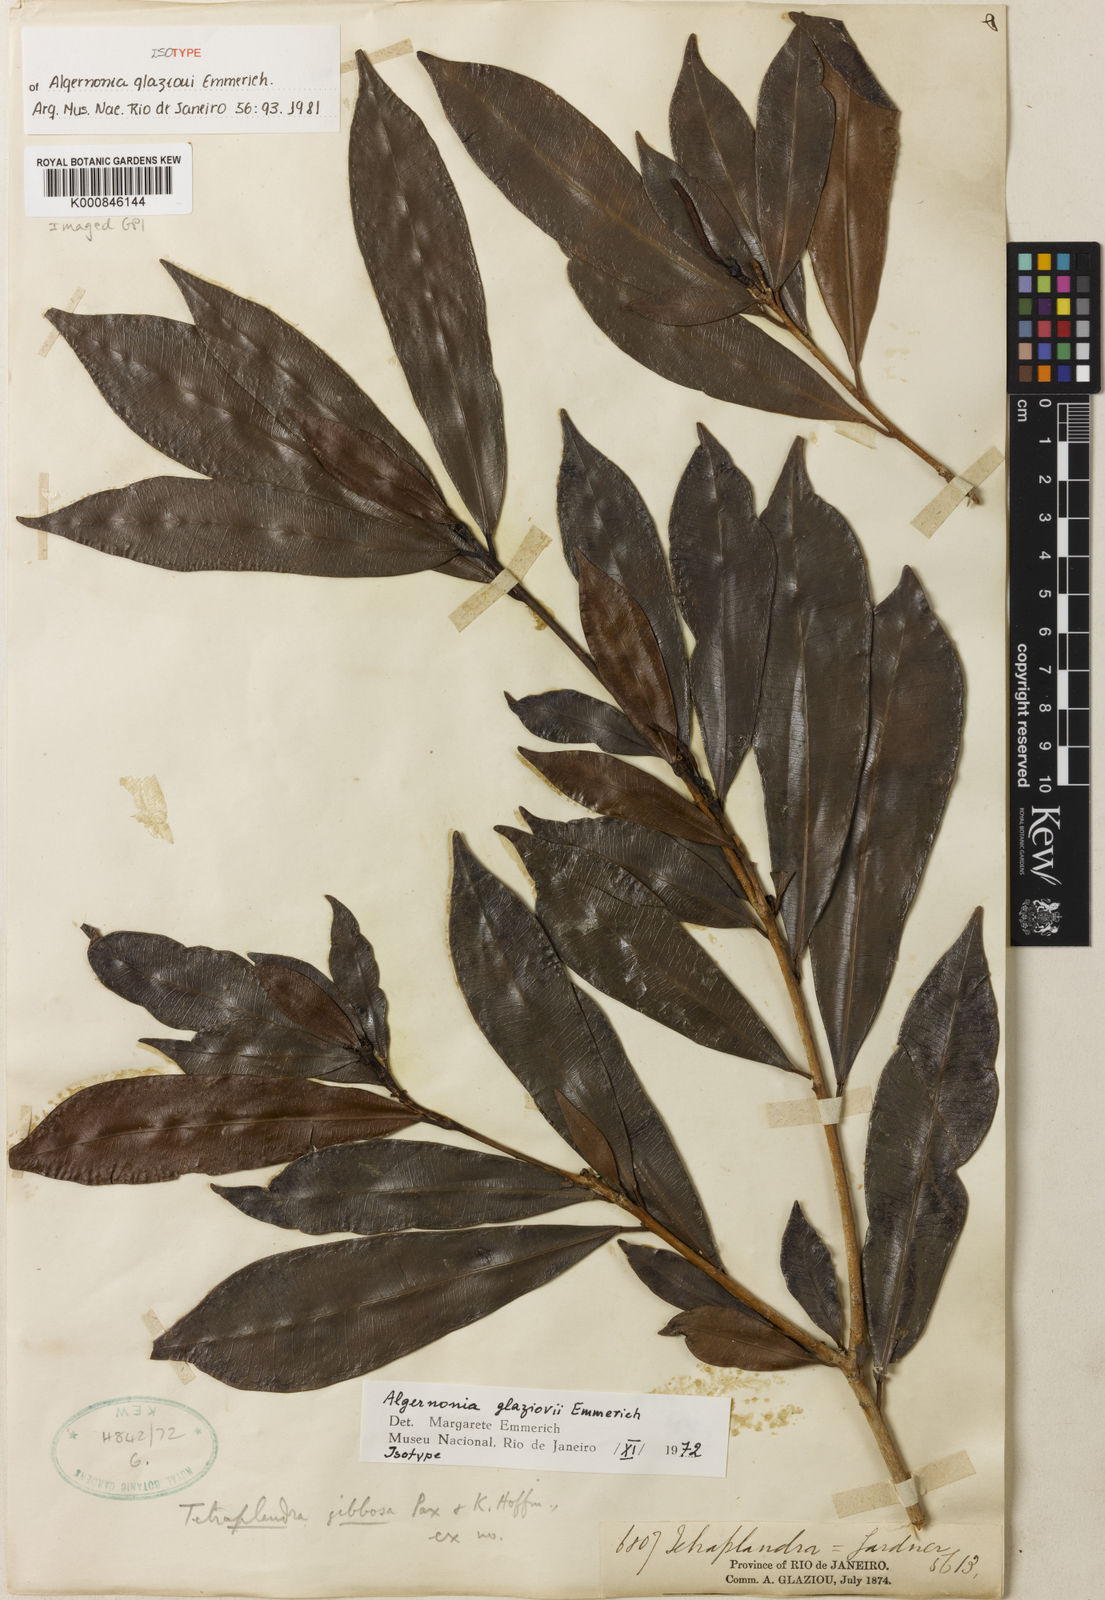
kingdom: Plantae
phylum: Tracheophyta
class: Magnoliopsida
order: Malpighiales
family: Euphorbiaceae
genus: Algernonia
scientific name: Algernonia glazioui
